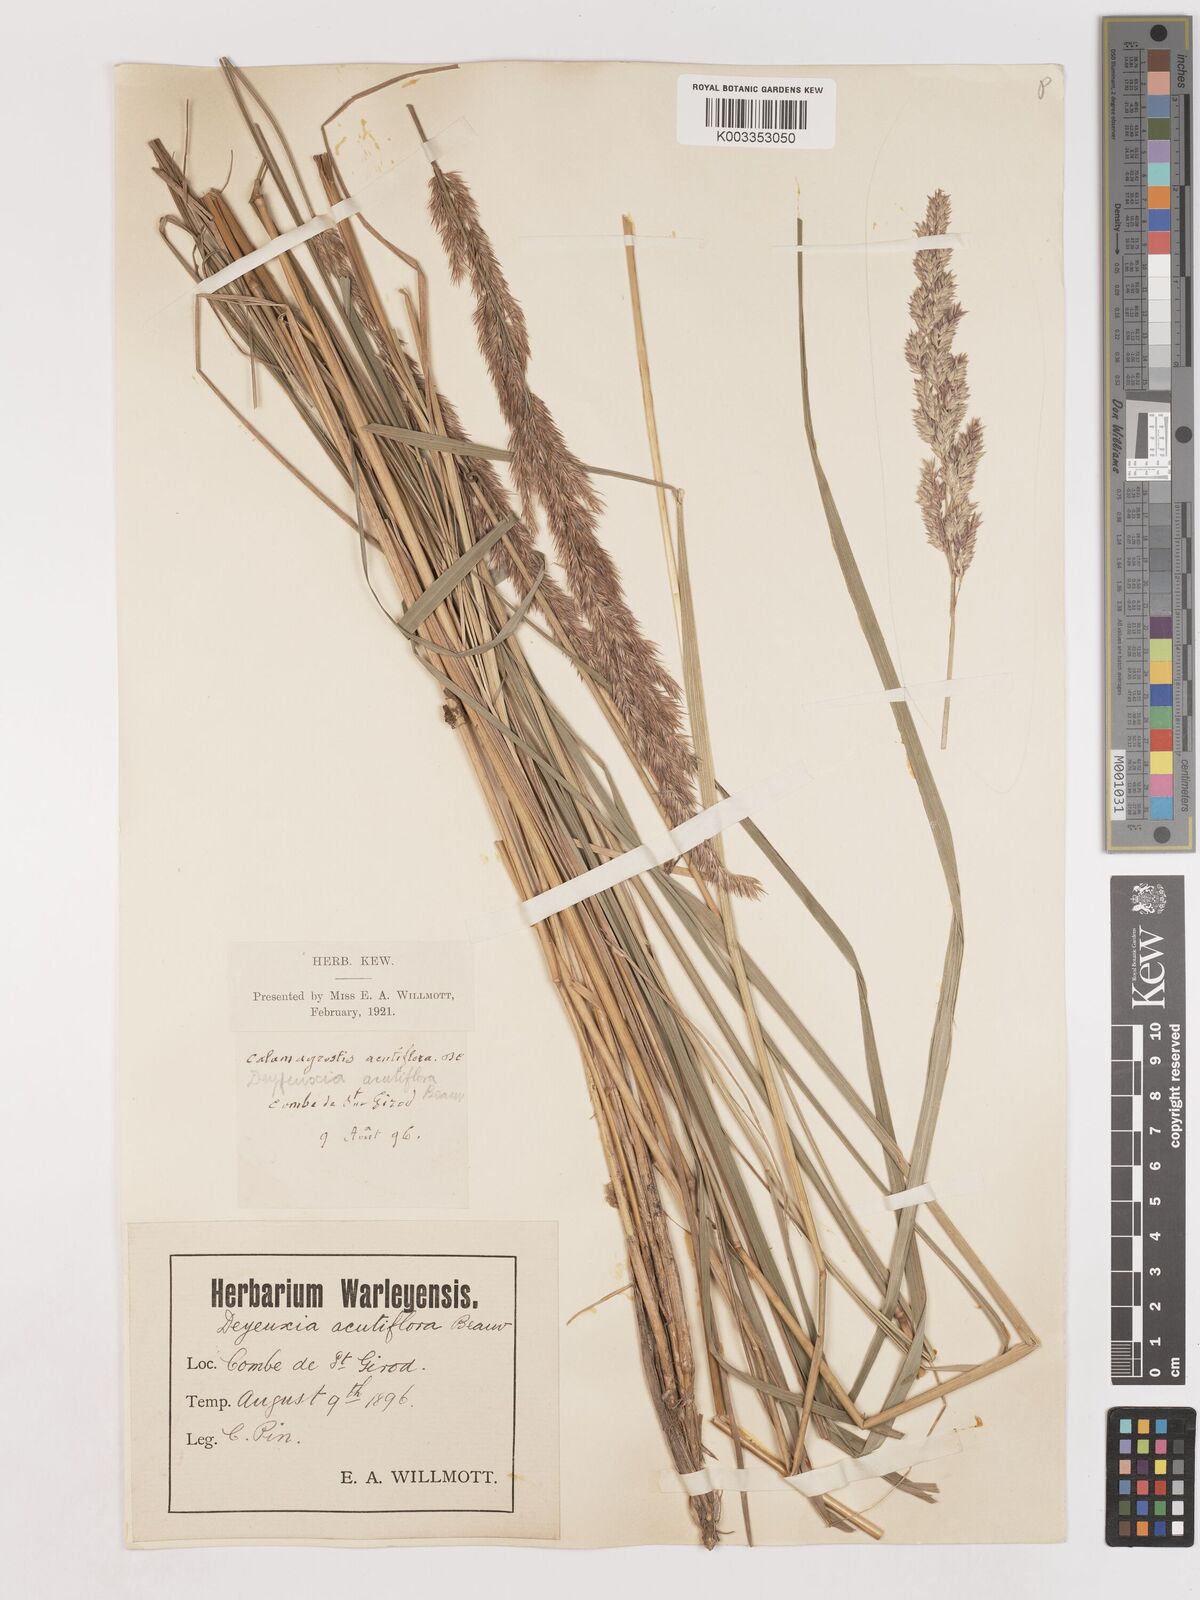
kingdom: Plantae
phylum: Tracheophyta
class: Liliopsida
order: Poales
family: Poaceae
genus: Calamagrostis
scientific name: Calamagrostis epigejos
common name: Wood small-reed
